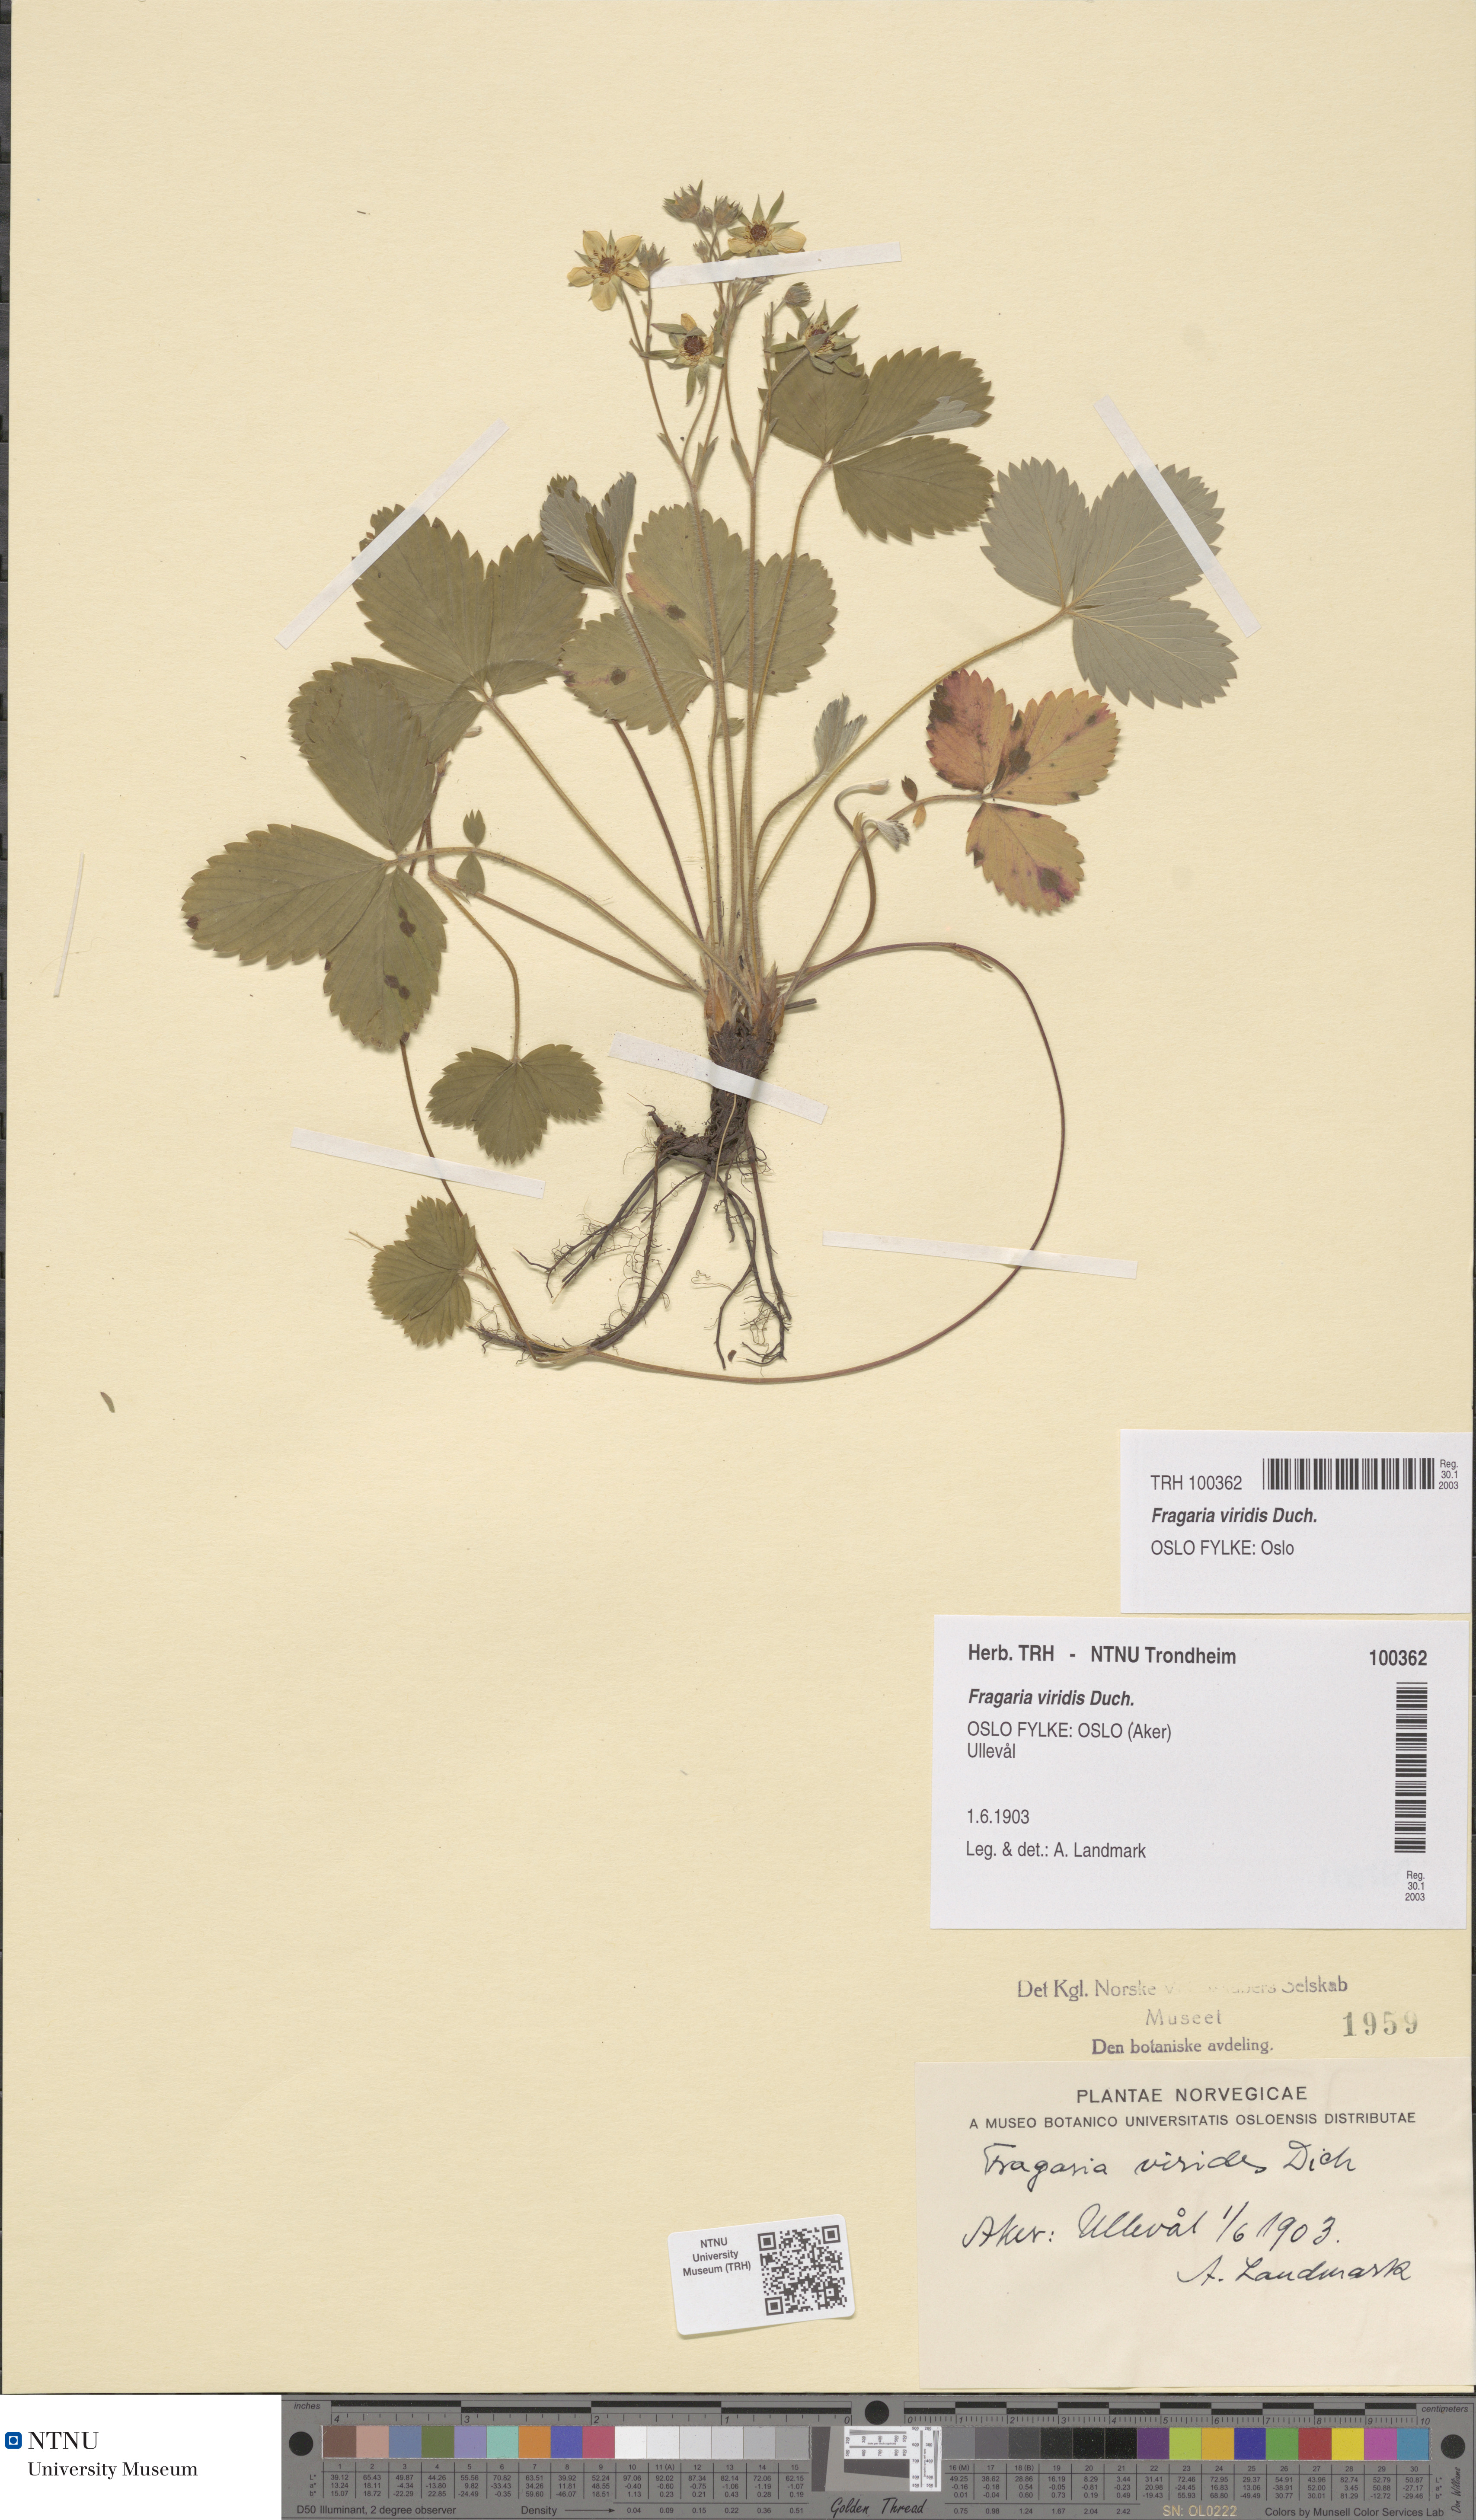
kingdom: Plantae
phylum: Tracheophyta
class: Magnoliopsida
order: Rosales
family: Rosaceae
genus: Fragaria
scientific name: Fragaria viridis
